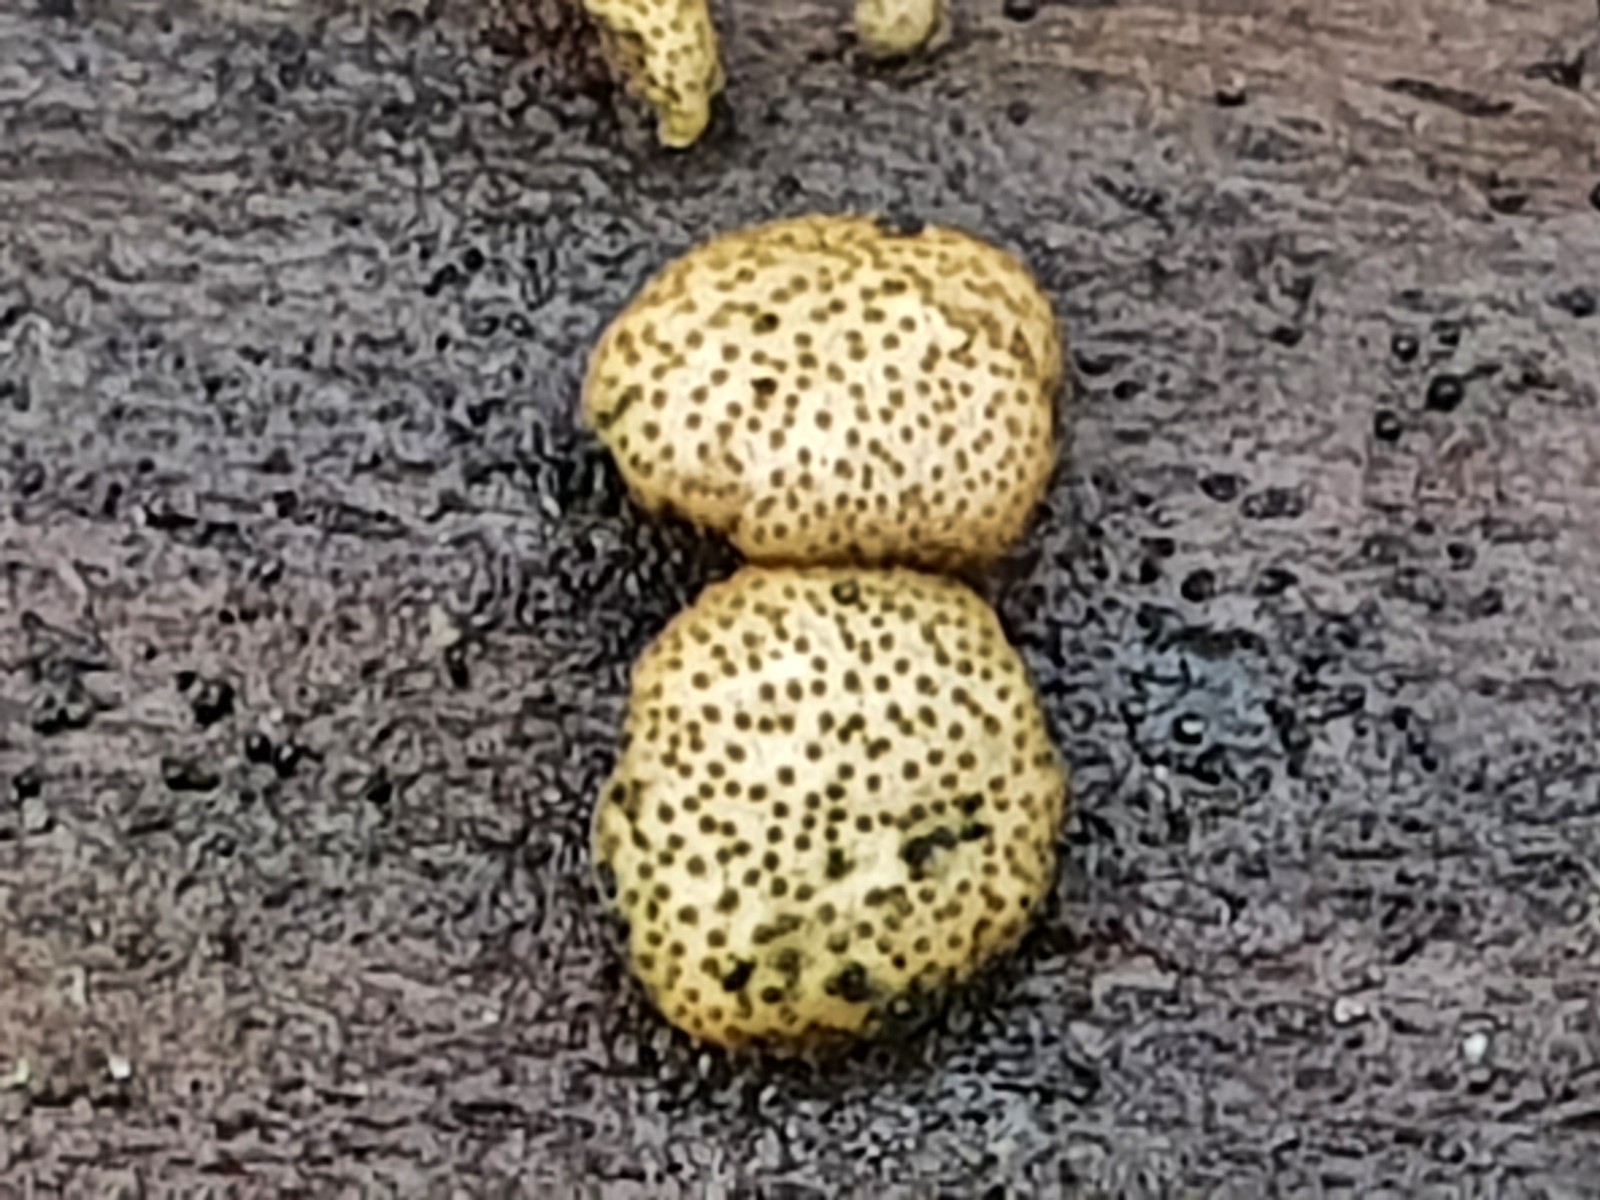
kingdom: Fungi
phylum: Ascomycota
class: Sordariomycetes
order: Hypocreales
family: Hypocreaceae
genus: Trichoderma
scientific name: Trichoderma strictipile
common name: grønprikket kødkerne
